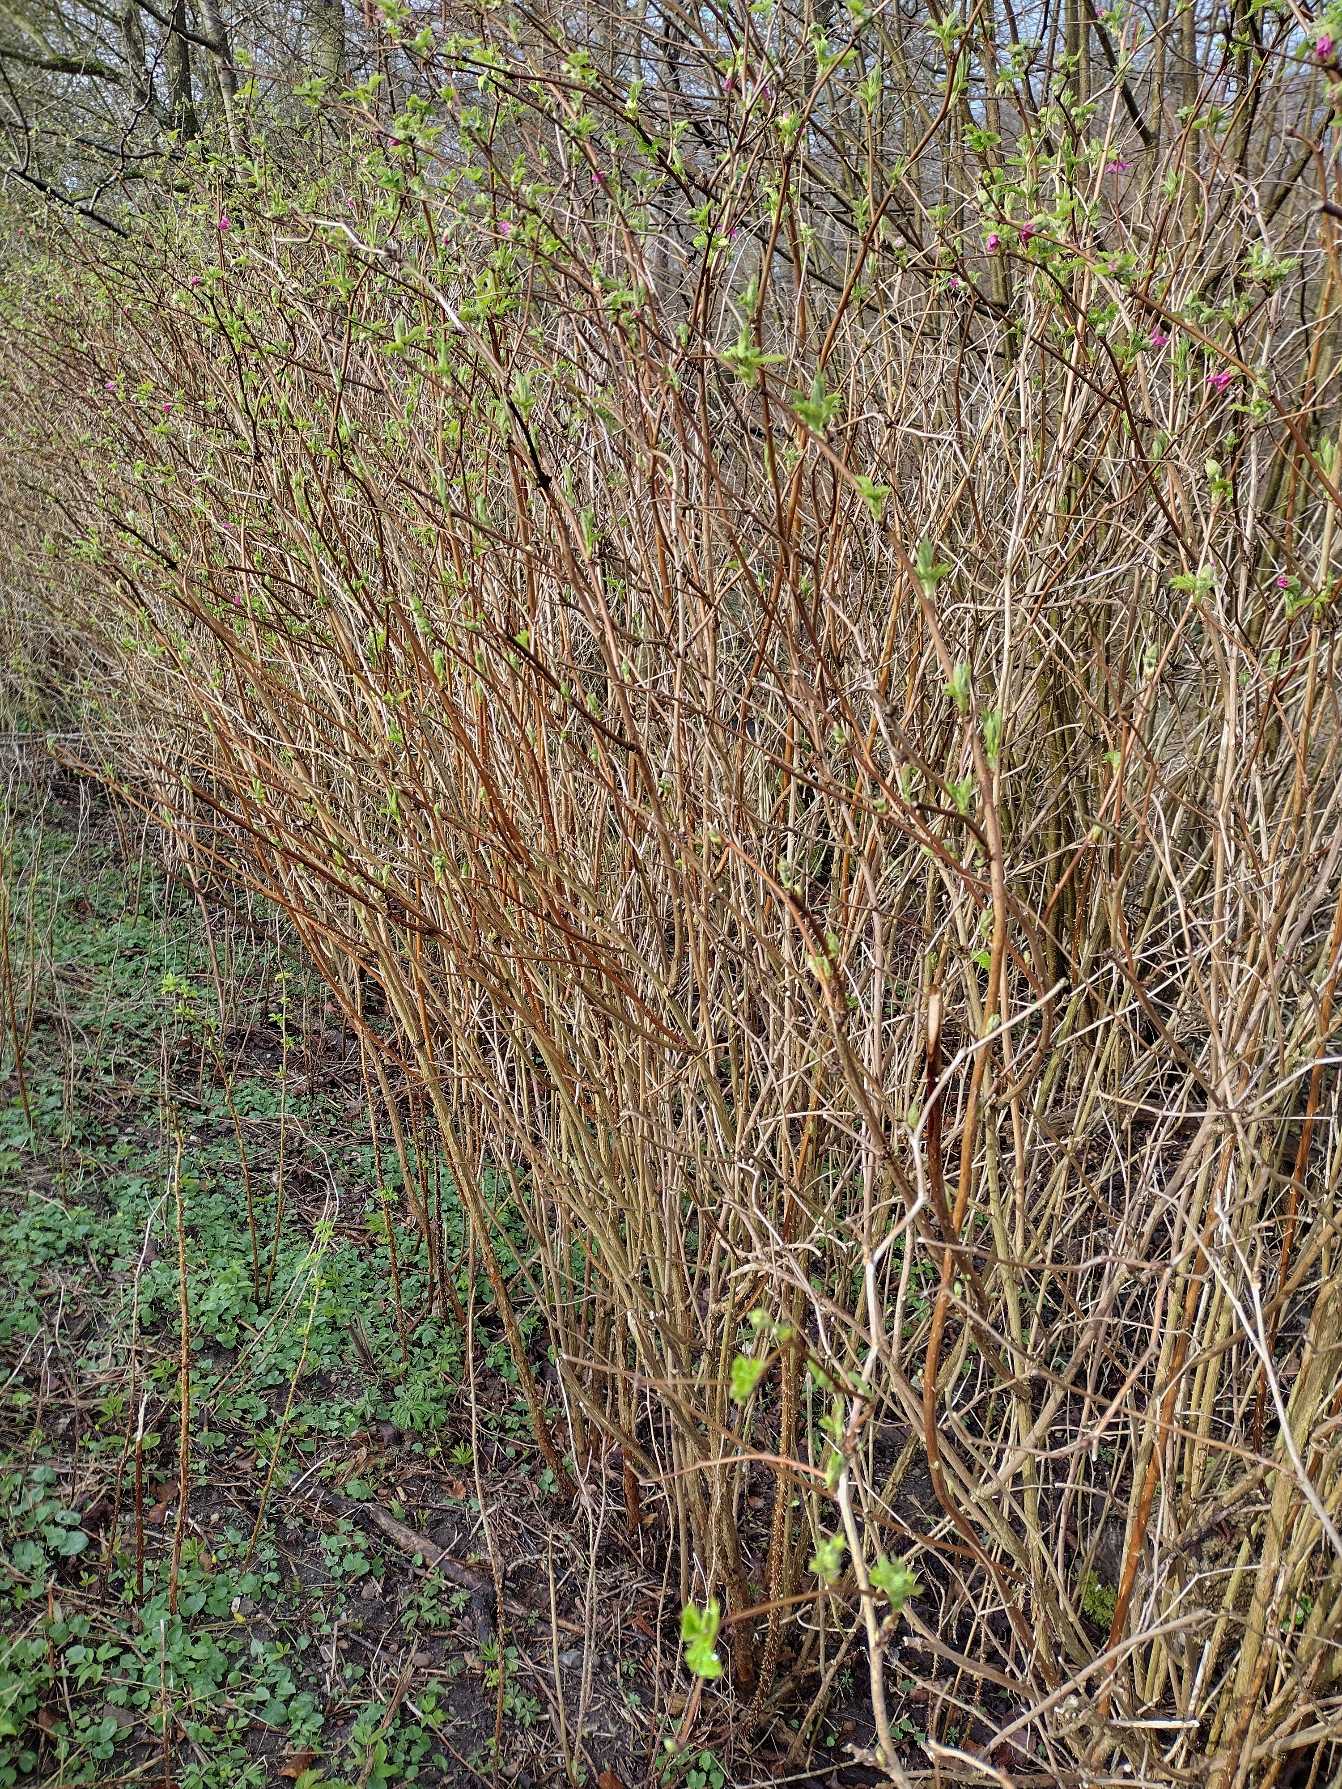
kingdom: Plantae
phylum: Tracheophyta
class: Magnoliopsida
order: Rosales
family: Rosaceae
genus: Rubus
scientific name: Rubus spectabilis
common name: Laksebær
